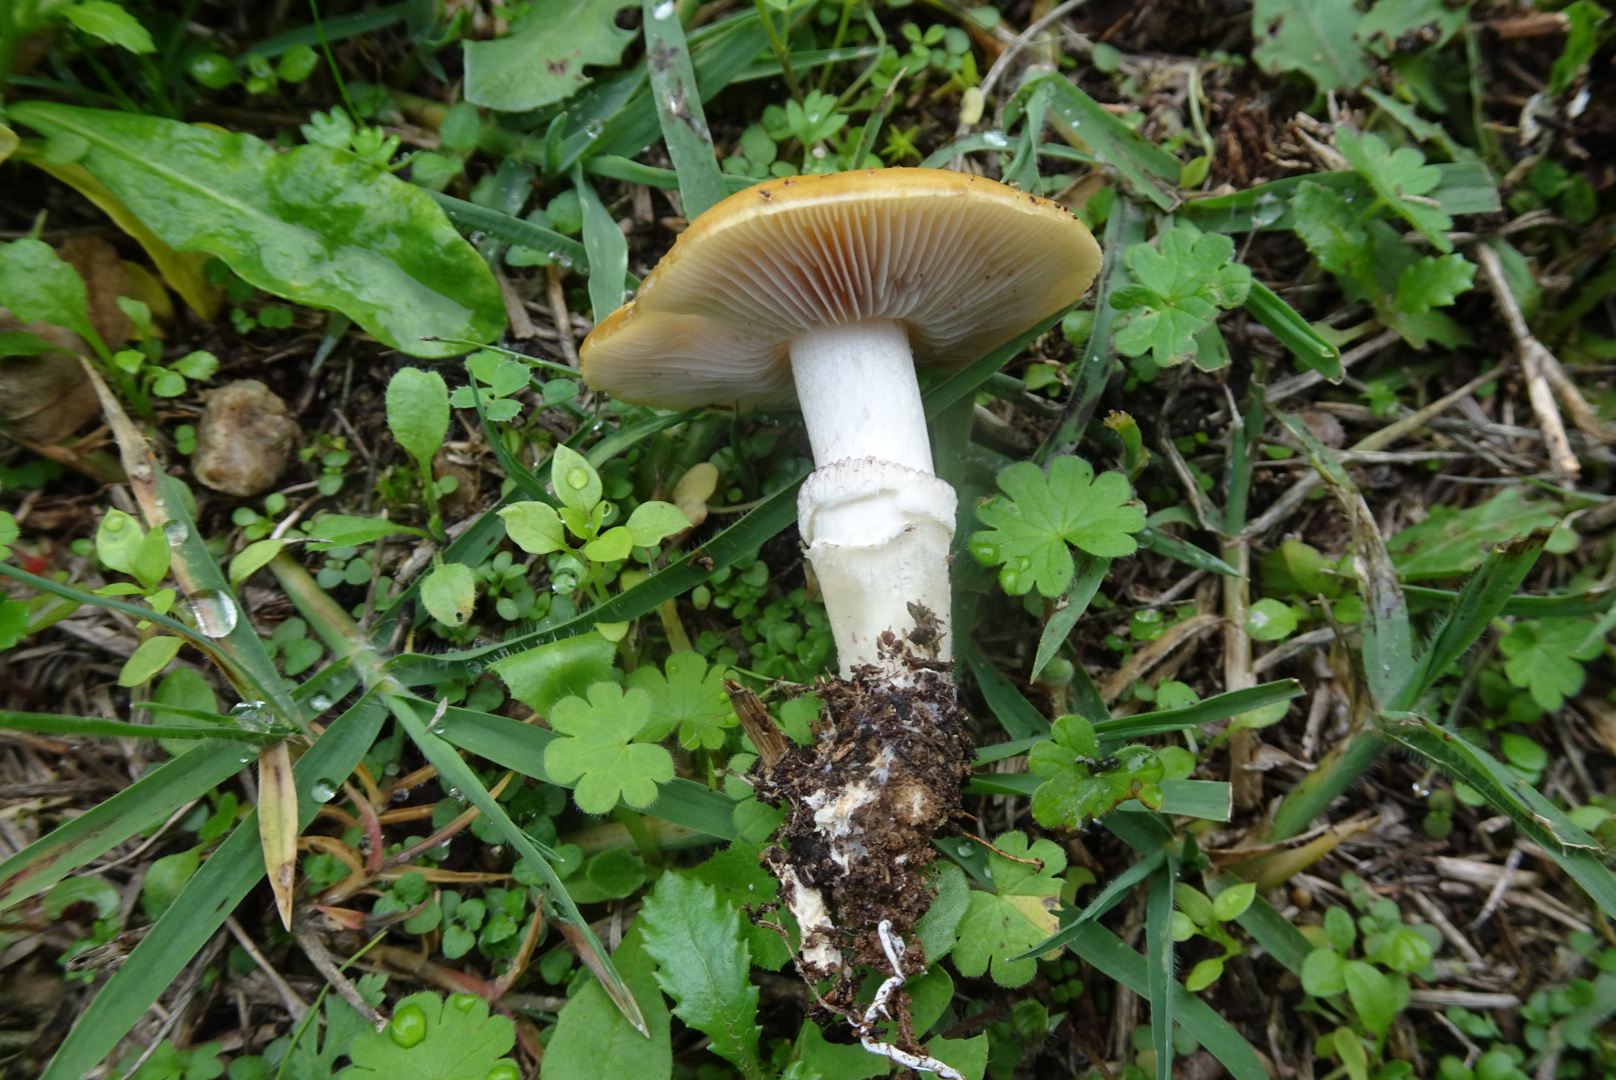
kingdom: Fungi
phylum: Basidiomycota
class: Agaricomycetes
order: Agaricales
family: Hymenogastraceae
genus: Psilocybe
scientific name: Psilocybe coronilla
